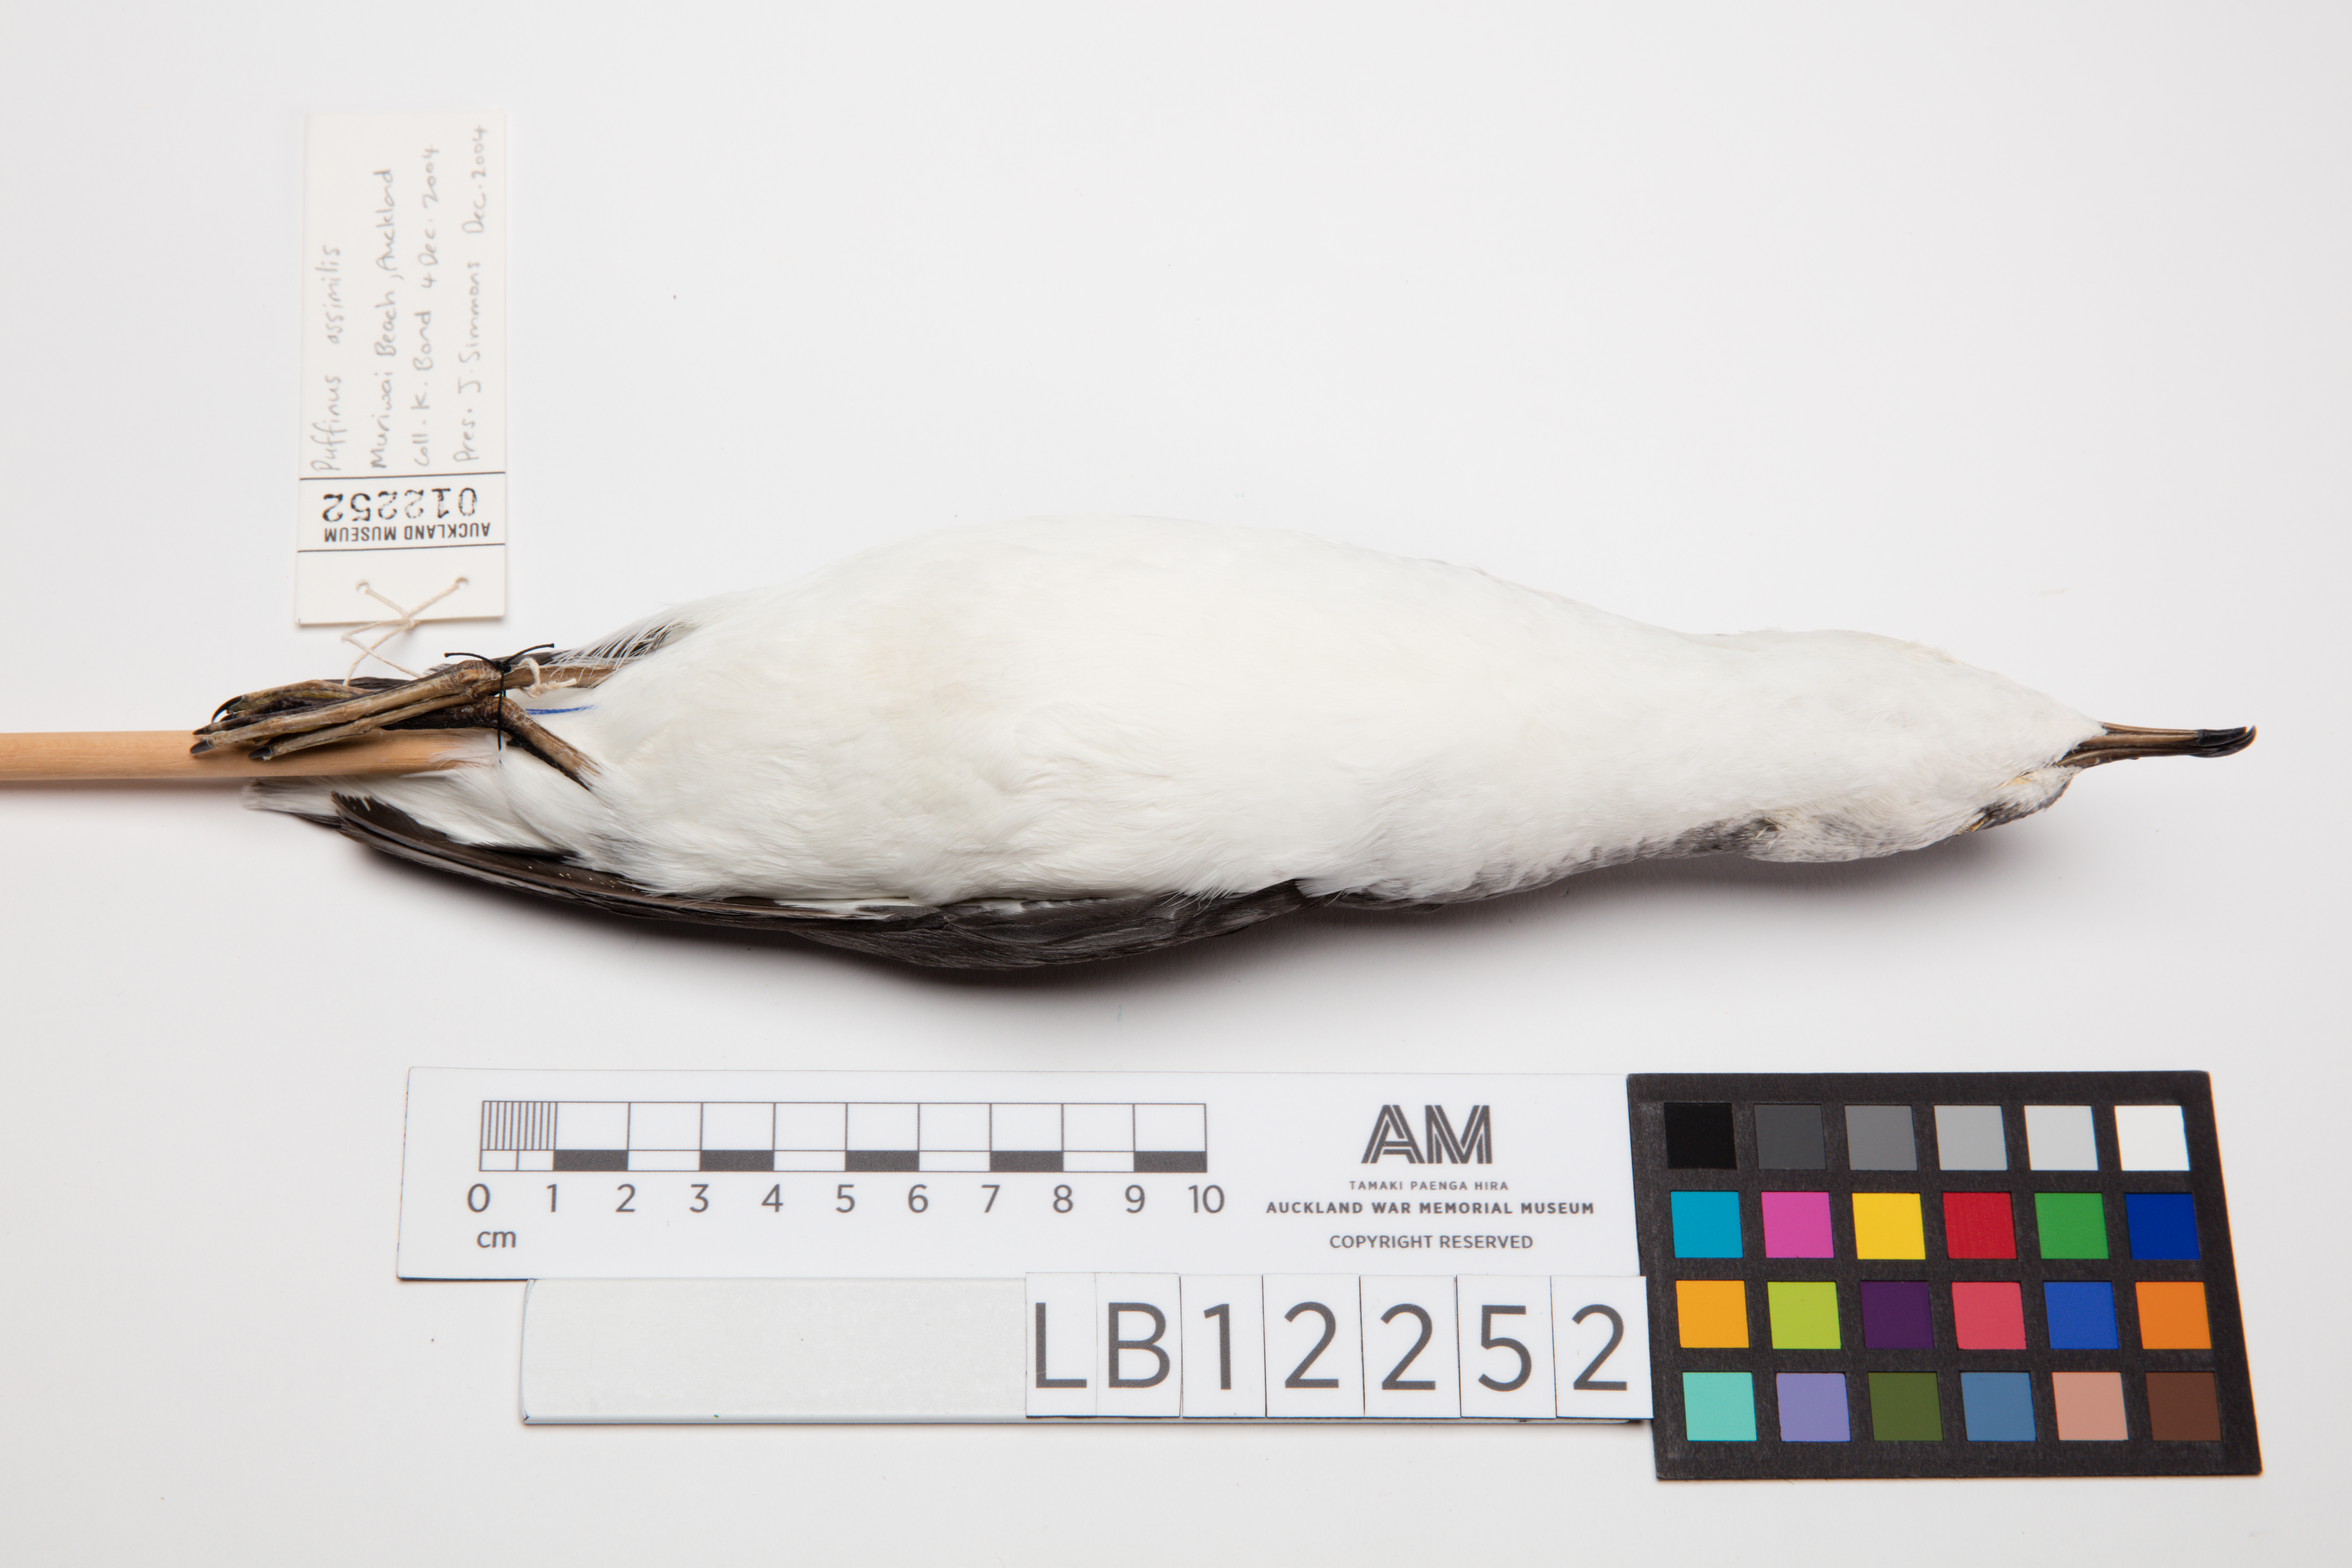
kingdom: Animalia
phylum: Chordata
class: Aves
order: Procellariiformes
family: Procellariidae
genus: Puffinus
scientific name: Puffinus assimilis
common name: Little shearwater
